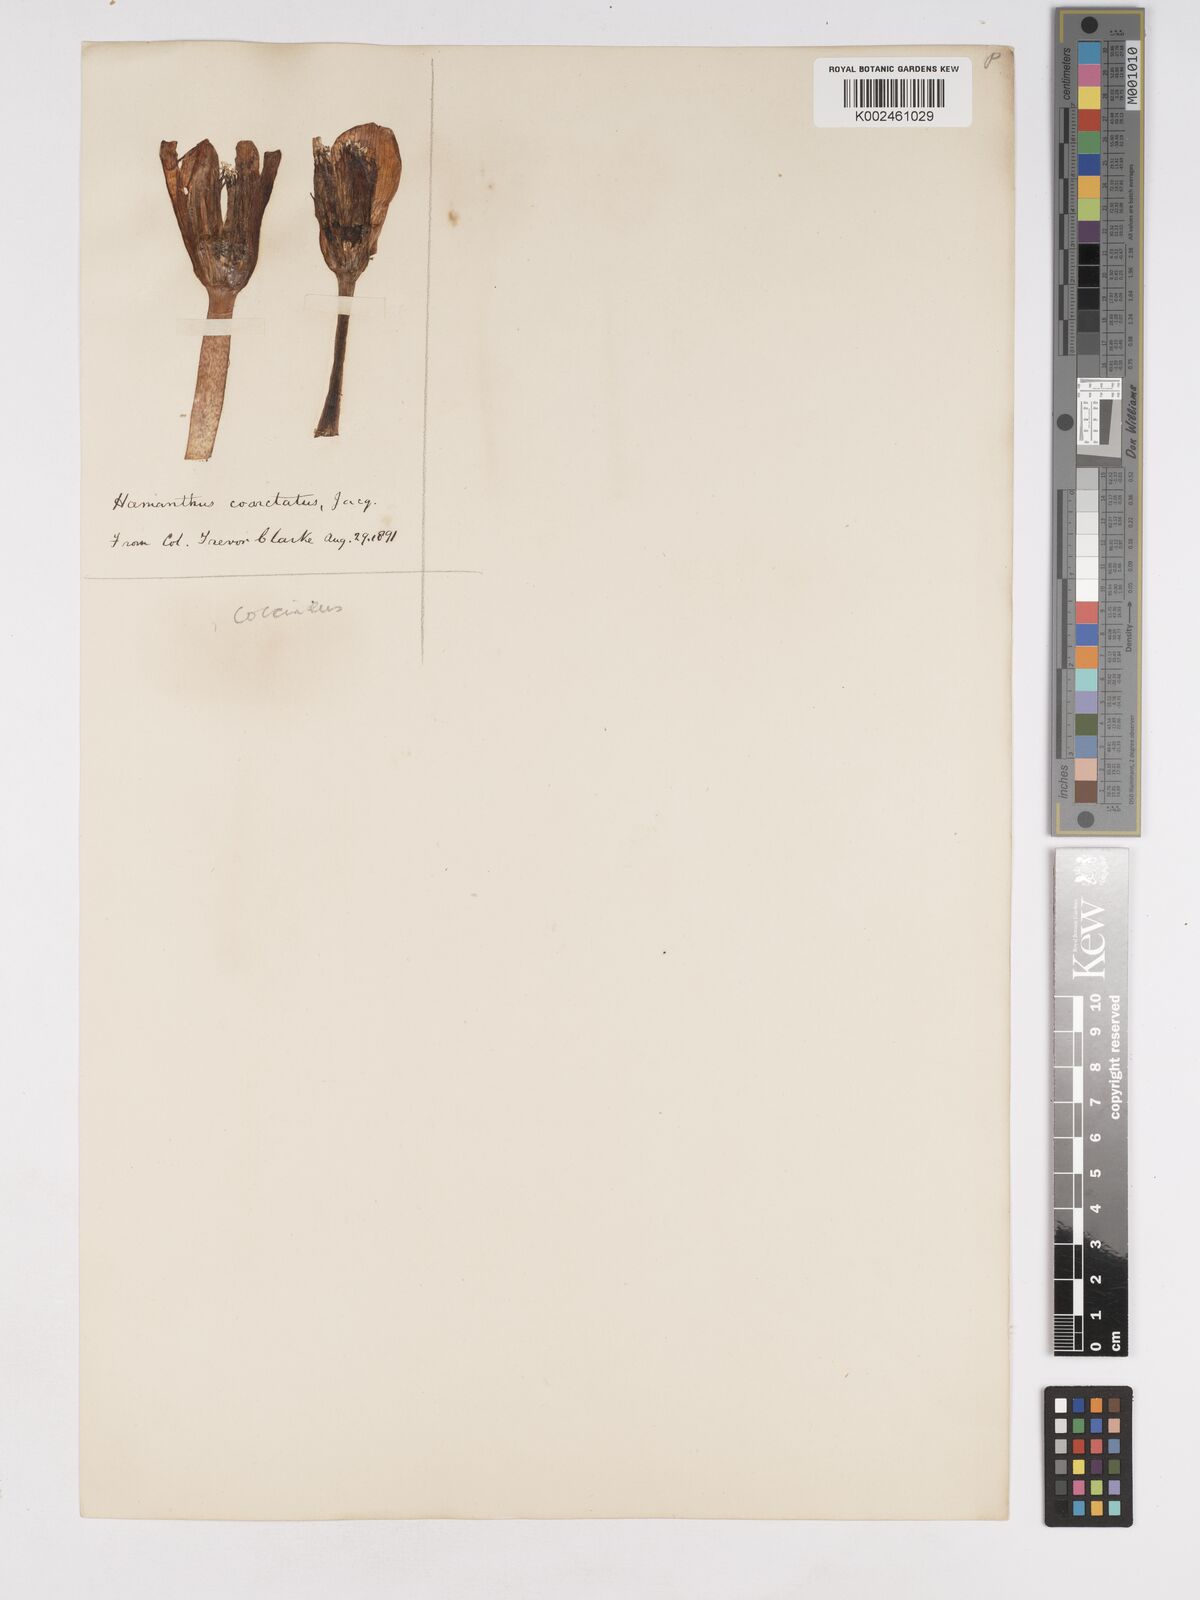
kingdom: Plantae
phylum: Tracheophyta
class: Liliopsida
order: Asparagales
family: Amaryllidaceae
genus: Haemanthus
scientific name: Haemanthus coccineus
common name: Cape-tulip
